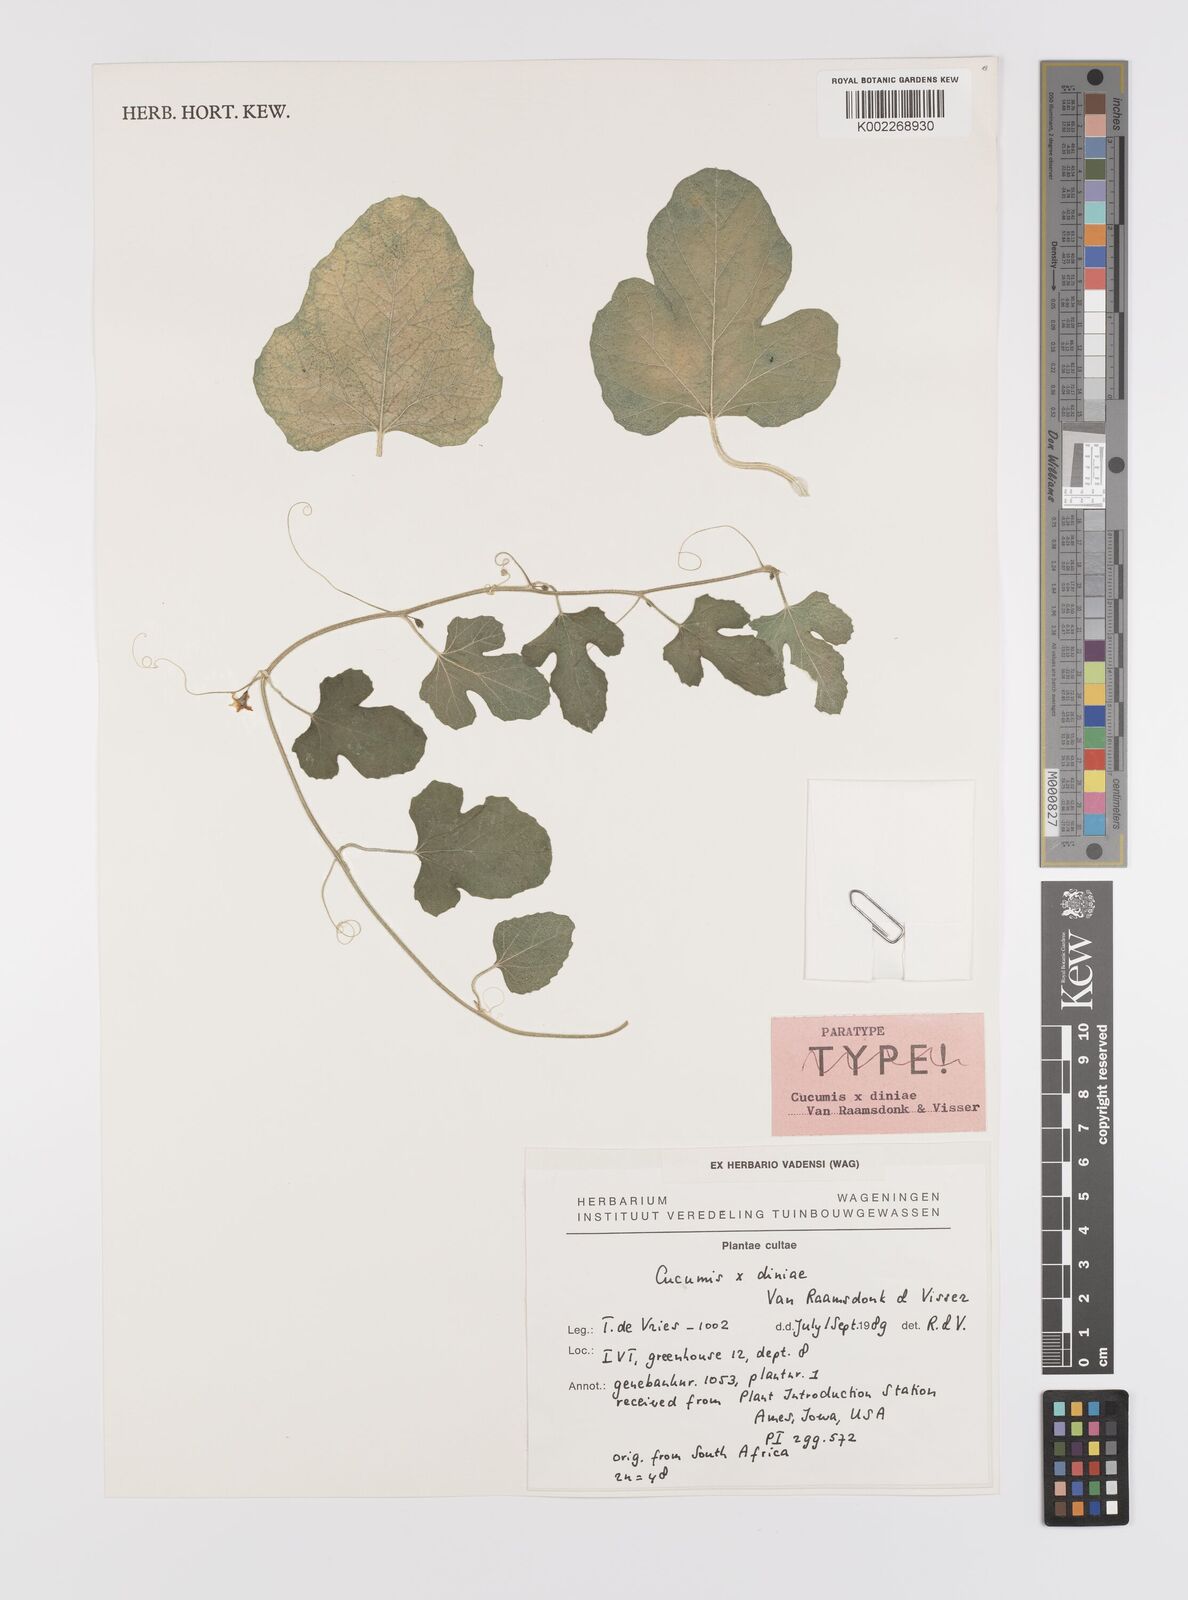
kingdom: Plantae
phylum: Tracheophyta
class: Magnoliopsida
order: Cucurbitales
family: Cucurbitaceae
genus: Cucumis
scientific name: Cucumis zeyheri
